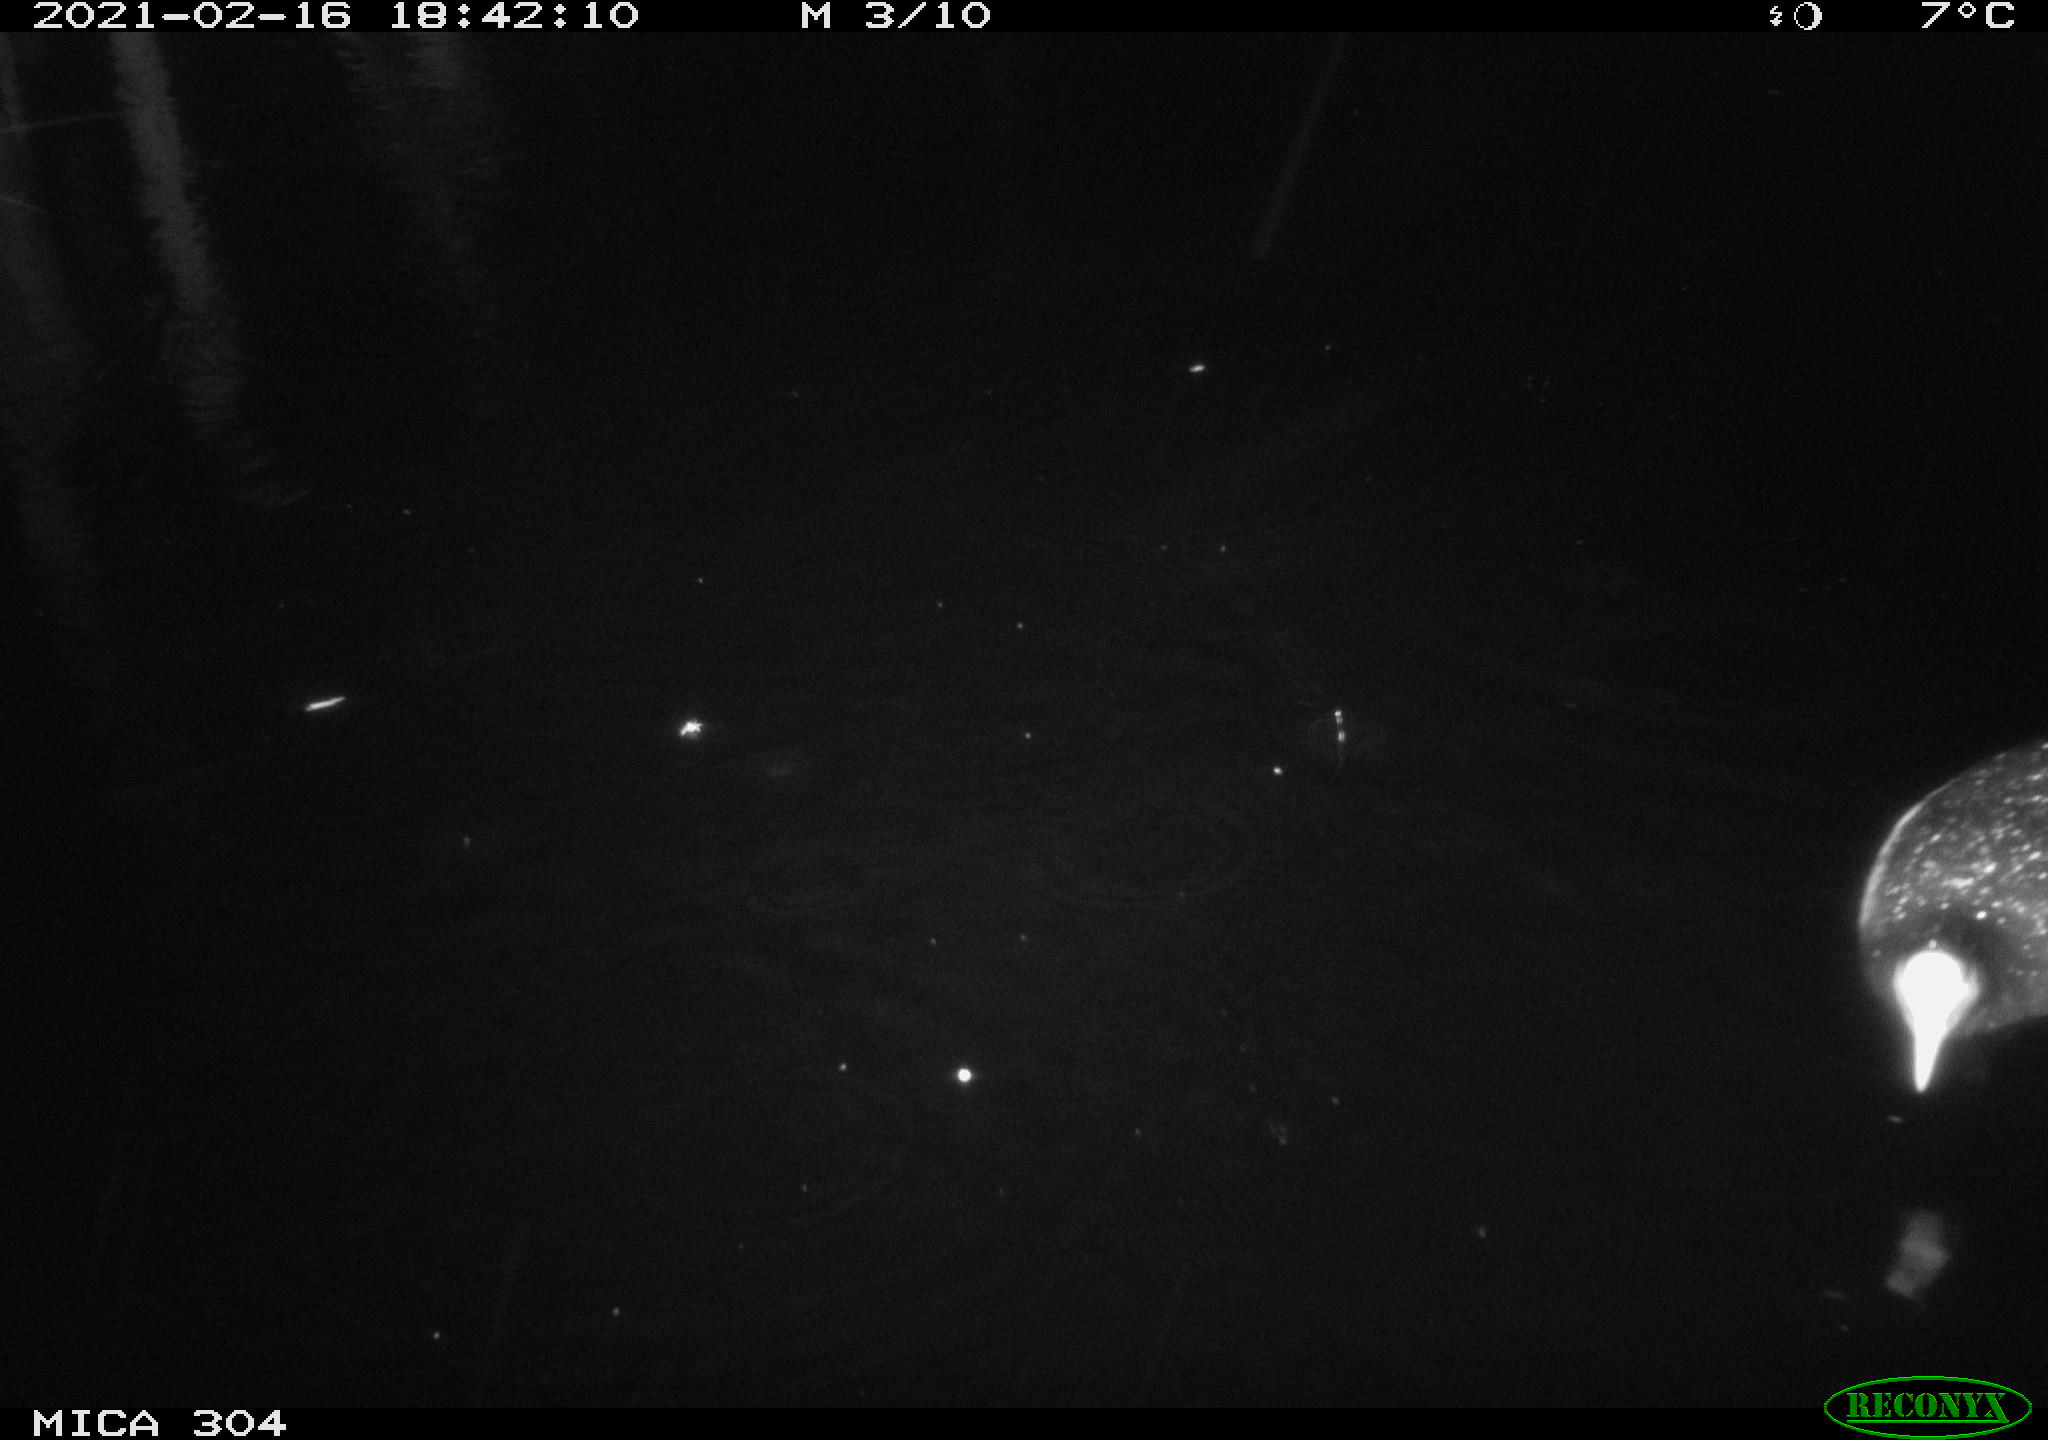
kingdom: Animalia
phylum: Chordata
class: Aves
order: Anseriformes
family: Anatidae
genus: Mareca
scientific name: Mareca strepera
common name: Gadwall
